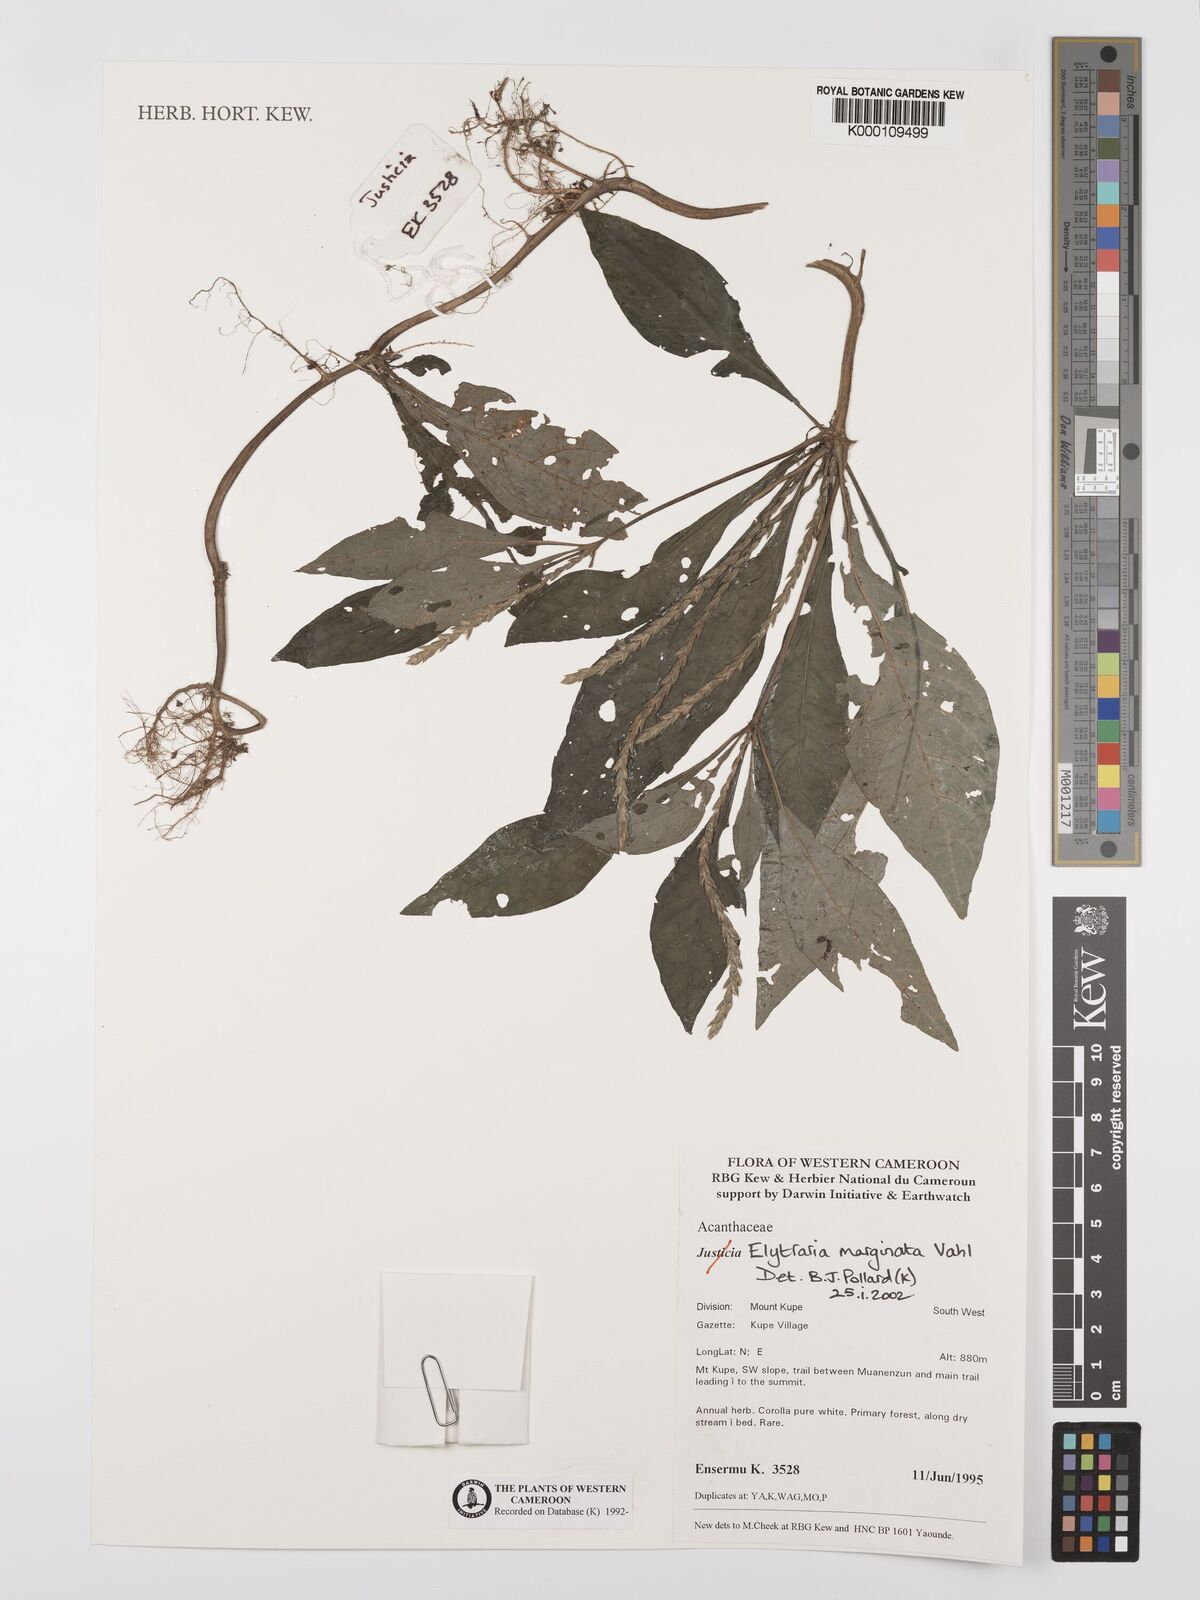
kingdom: Plantae
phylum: Tracheophyta
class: Magnoliopsida
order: Lamiales
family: Acanthaceae
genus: Elytraria
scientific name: Elytraria marginata
